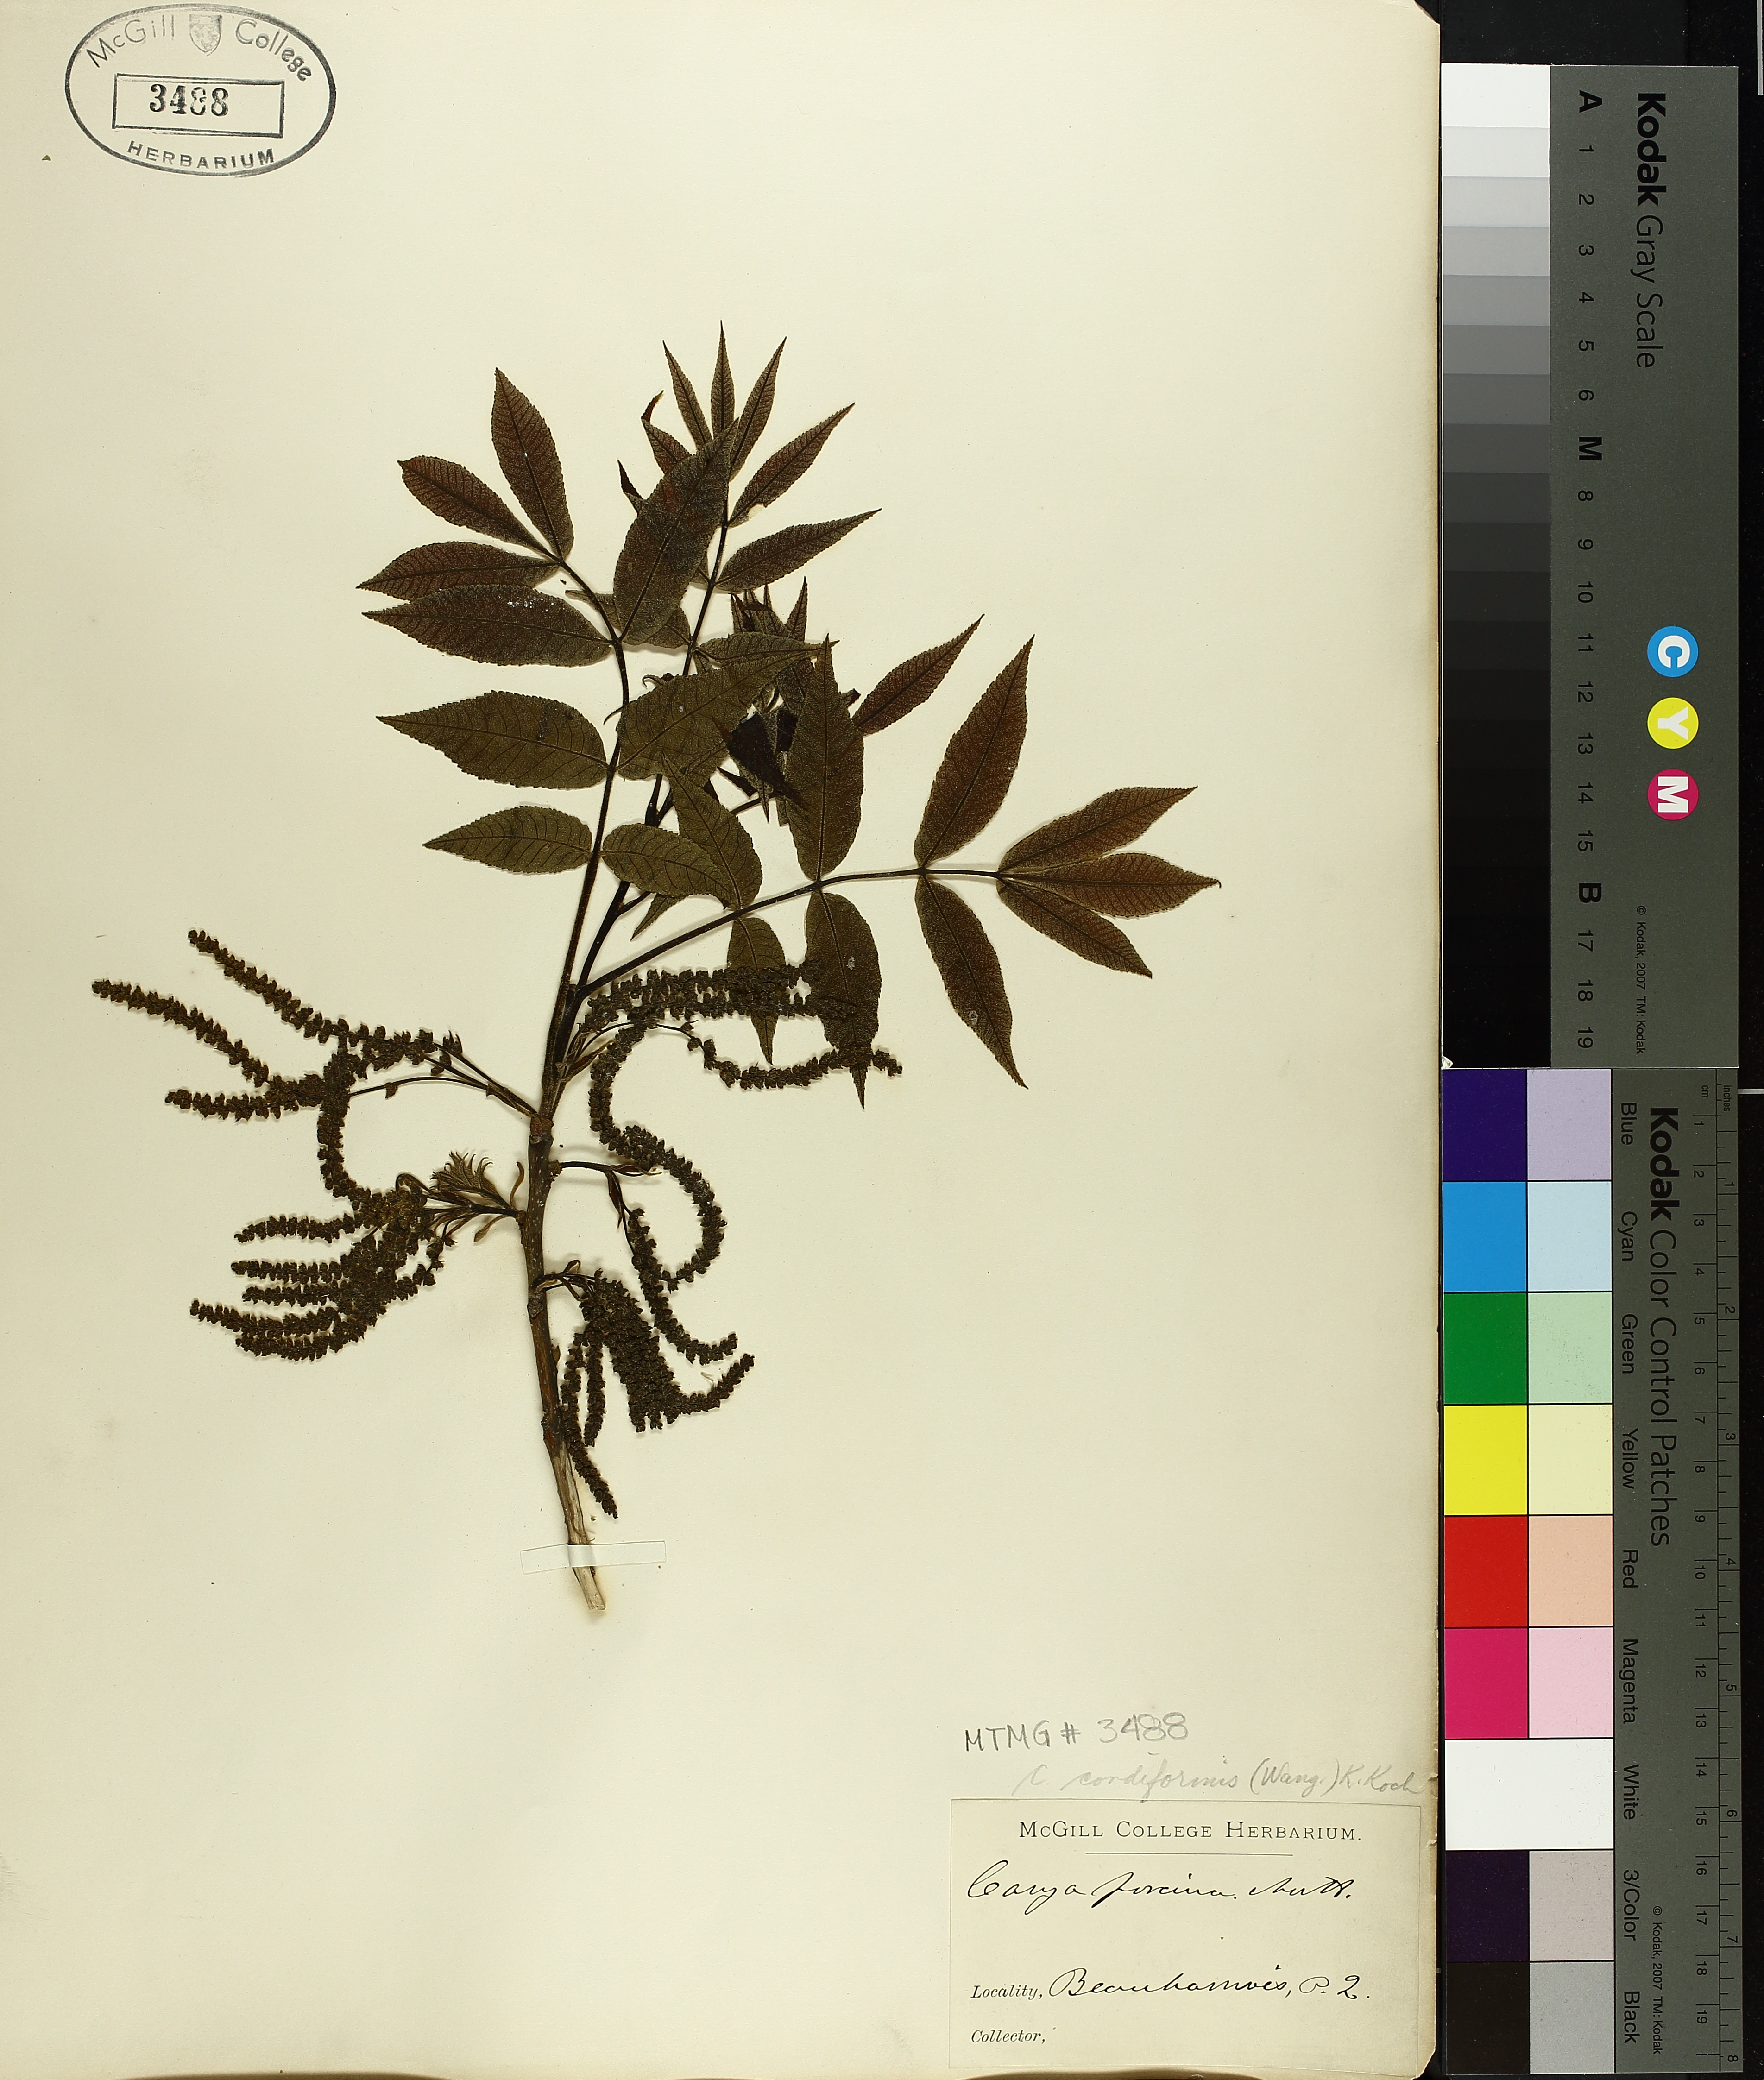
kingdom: Plantae
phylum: Tracheophyta
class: Magnoliopsida
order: Fagales
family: Juglandaceae
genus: Carya
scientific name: Carya cordiformis
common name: Bitternut hickory
